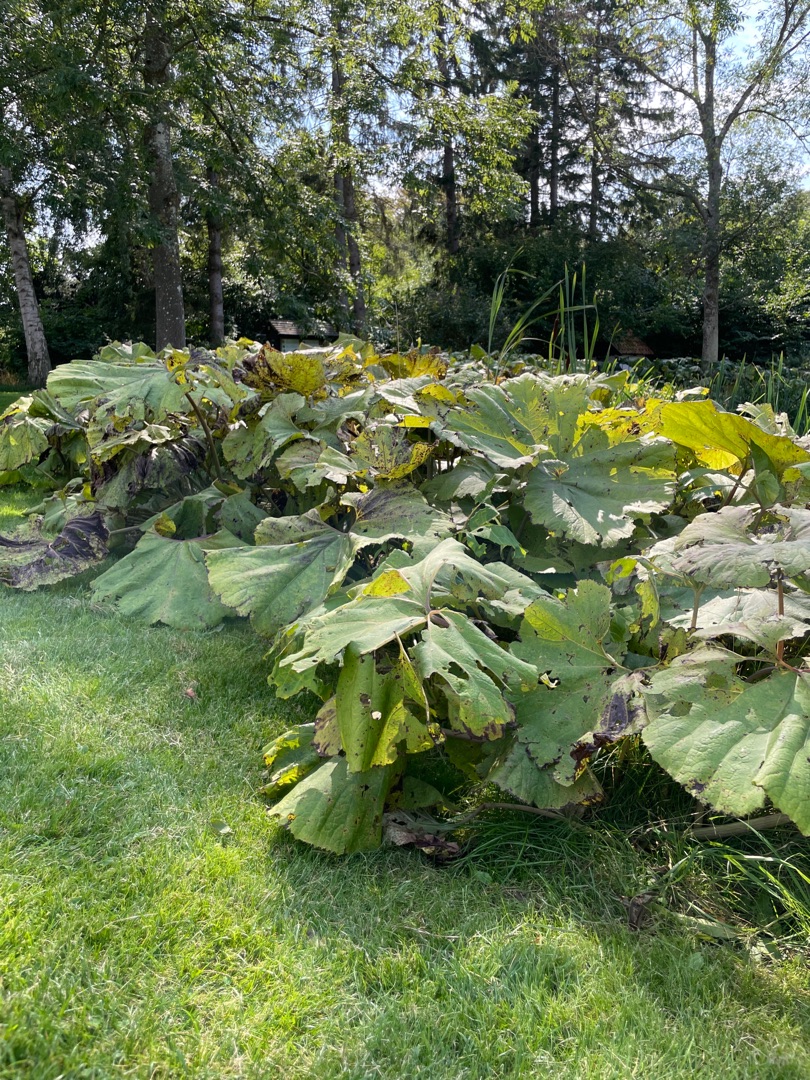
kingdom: Plantae
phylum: Tracheophyta
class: Magnoliopsida
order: Asterales
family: Asteraceae
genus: Petasites
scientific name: Petasites hybridus
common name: Rød hestehov
